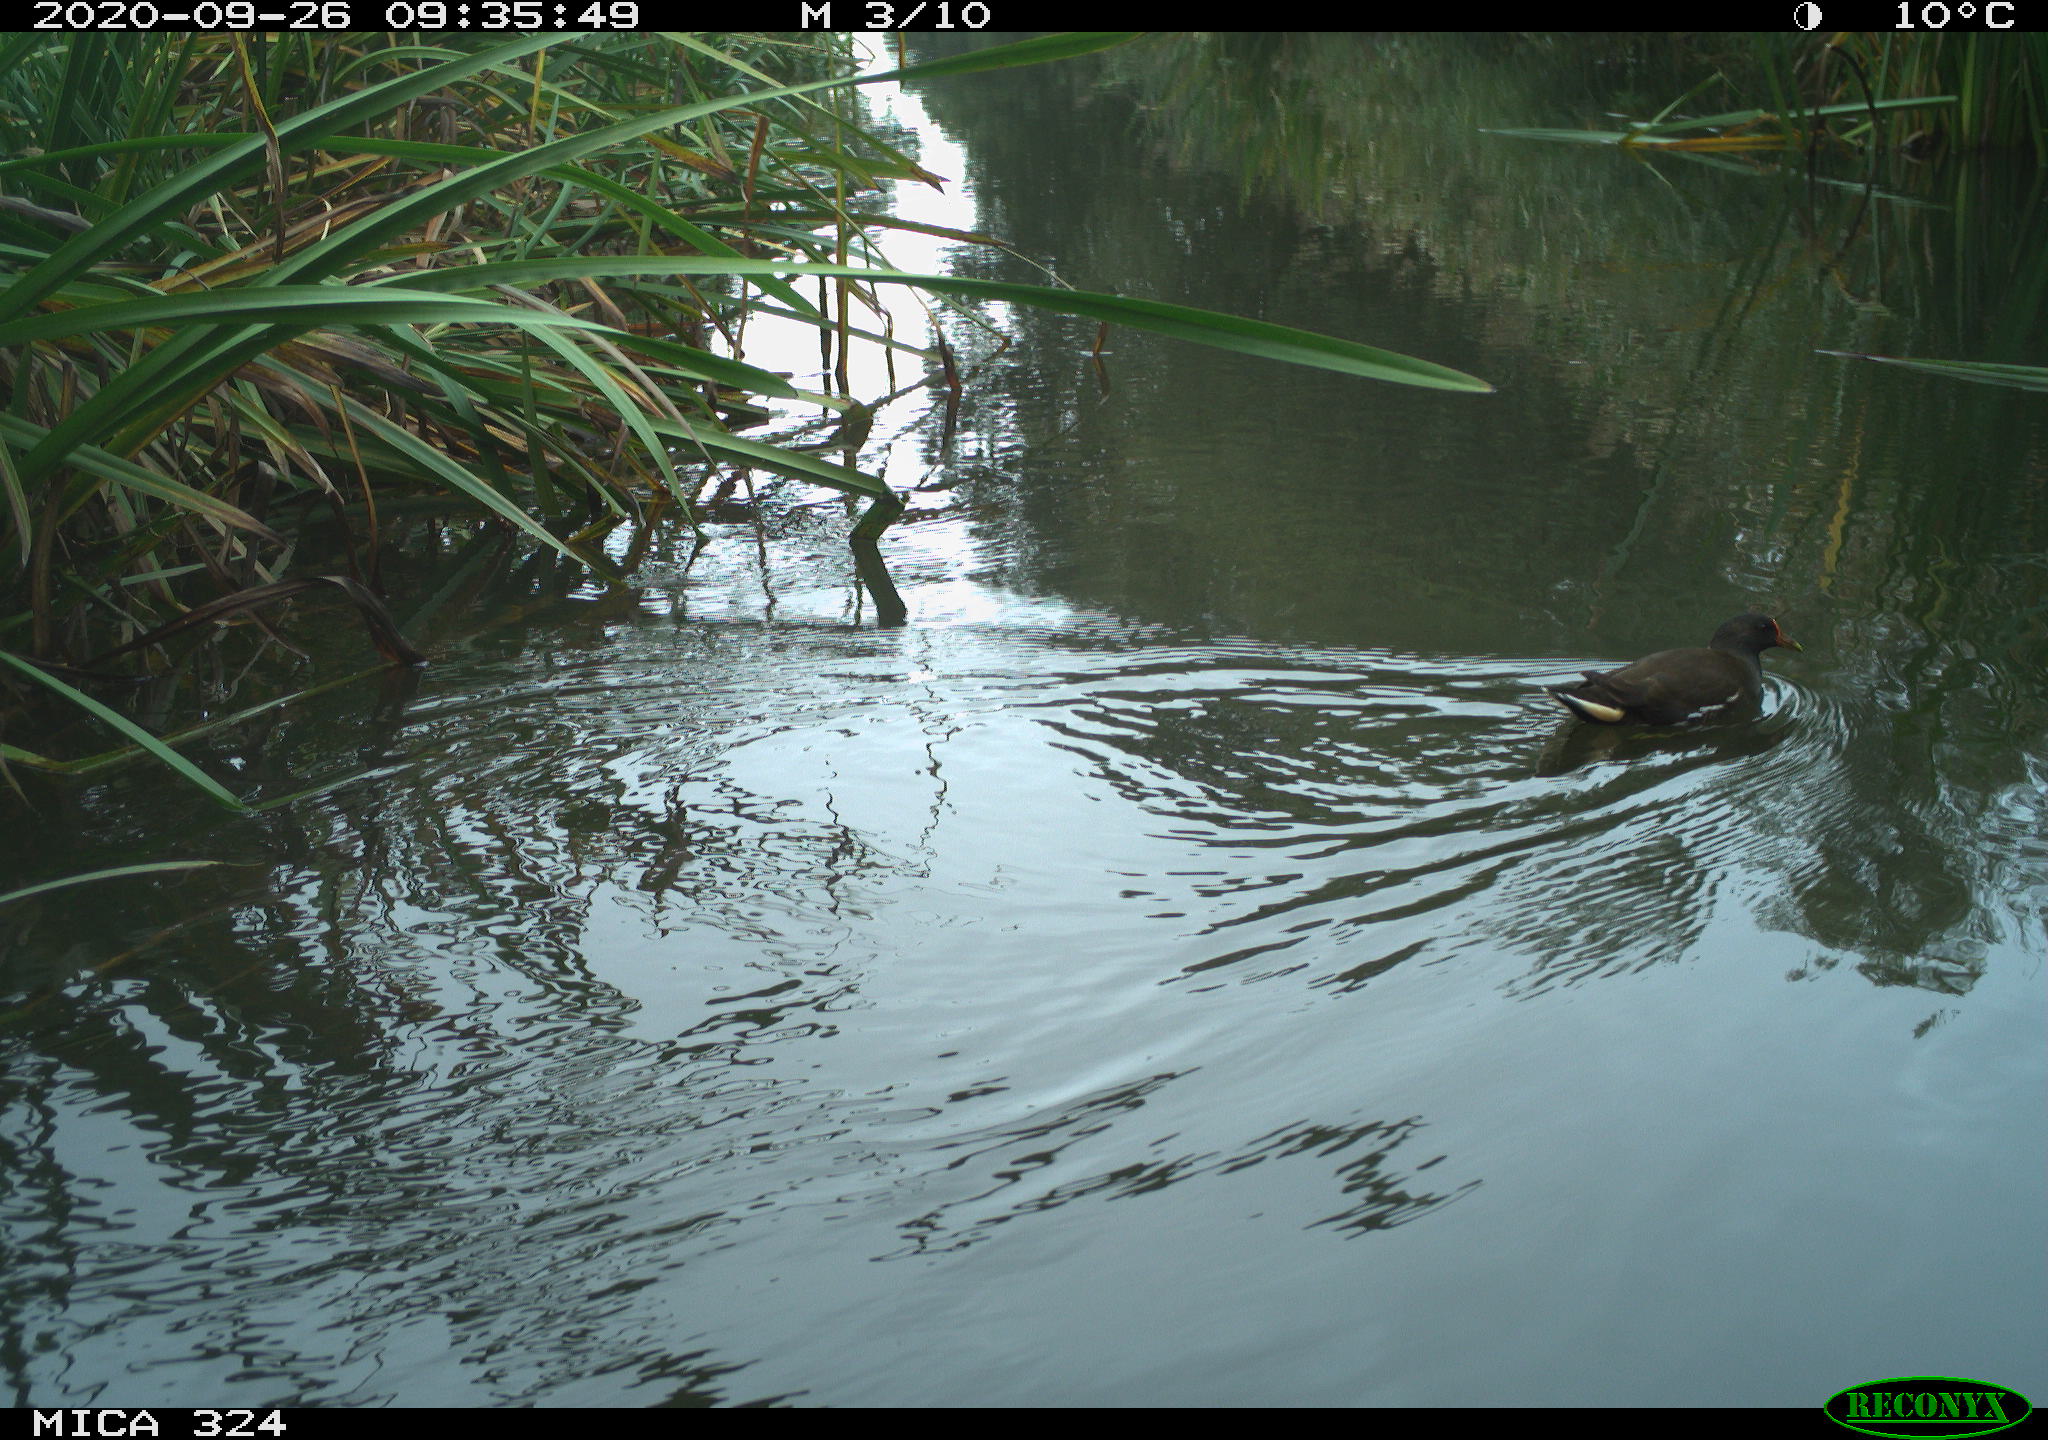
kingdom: Animalia
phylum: Chordata
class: Aves
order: Gruiformes
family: Rallidae
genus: Gallinula
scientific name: Gallinula chloropus
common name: Common moorhen
